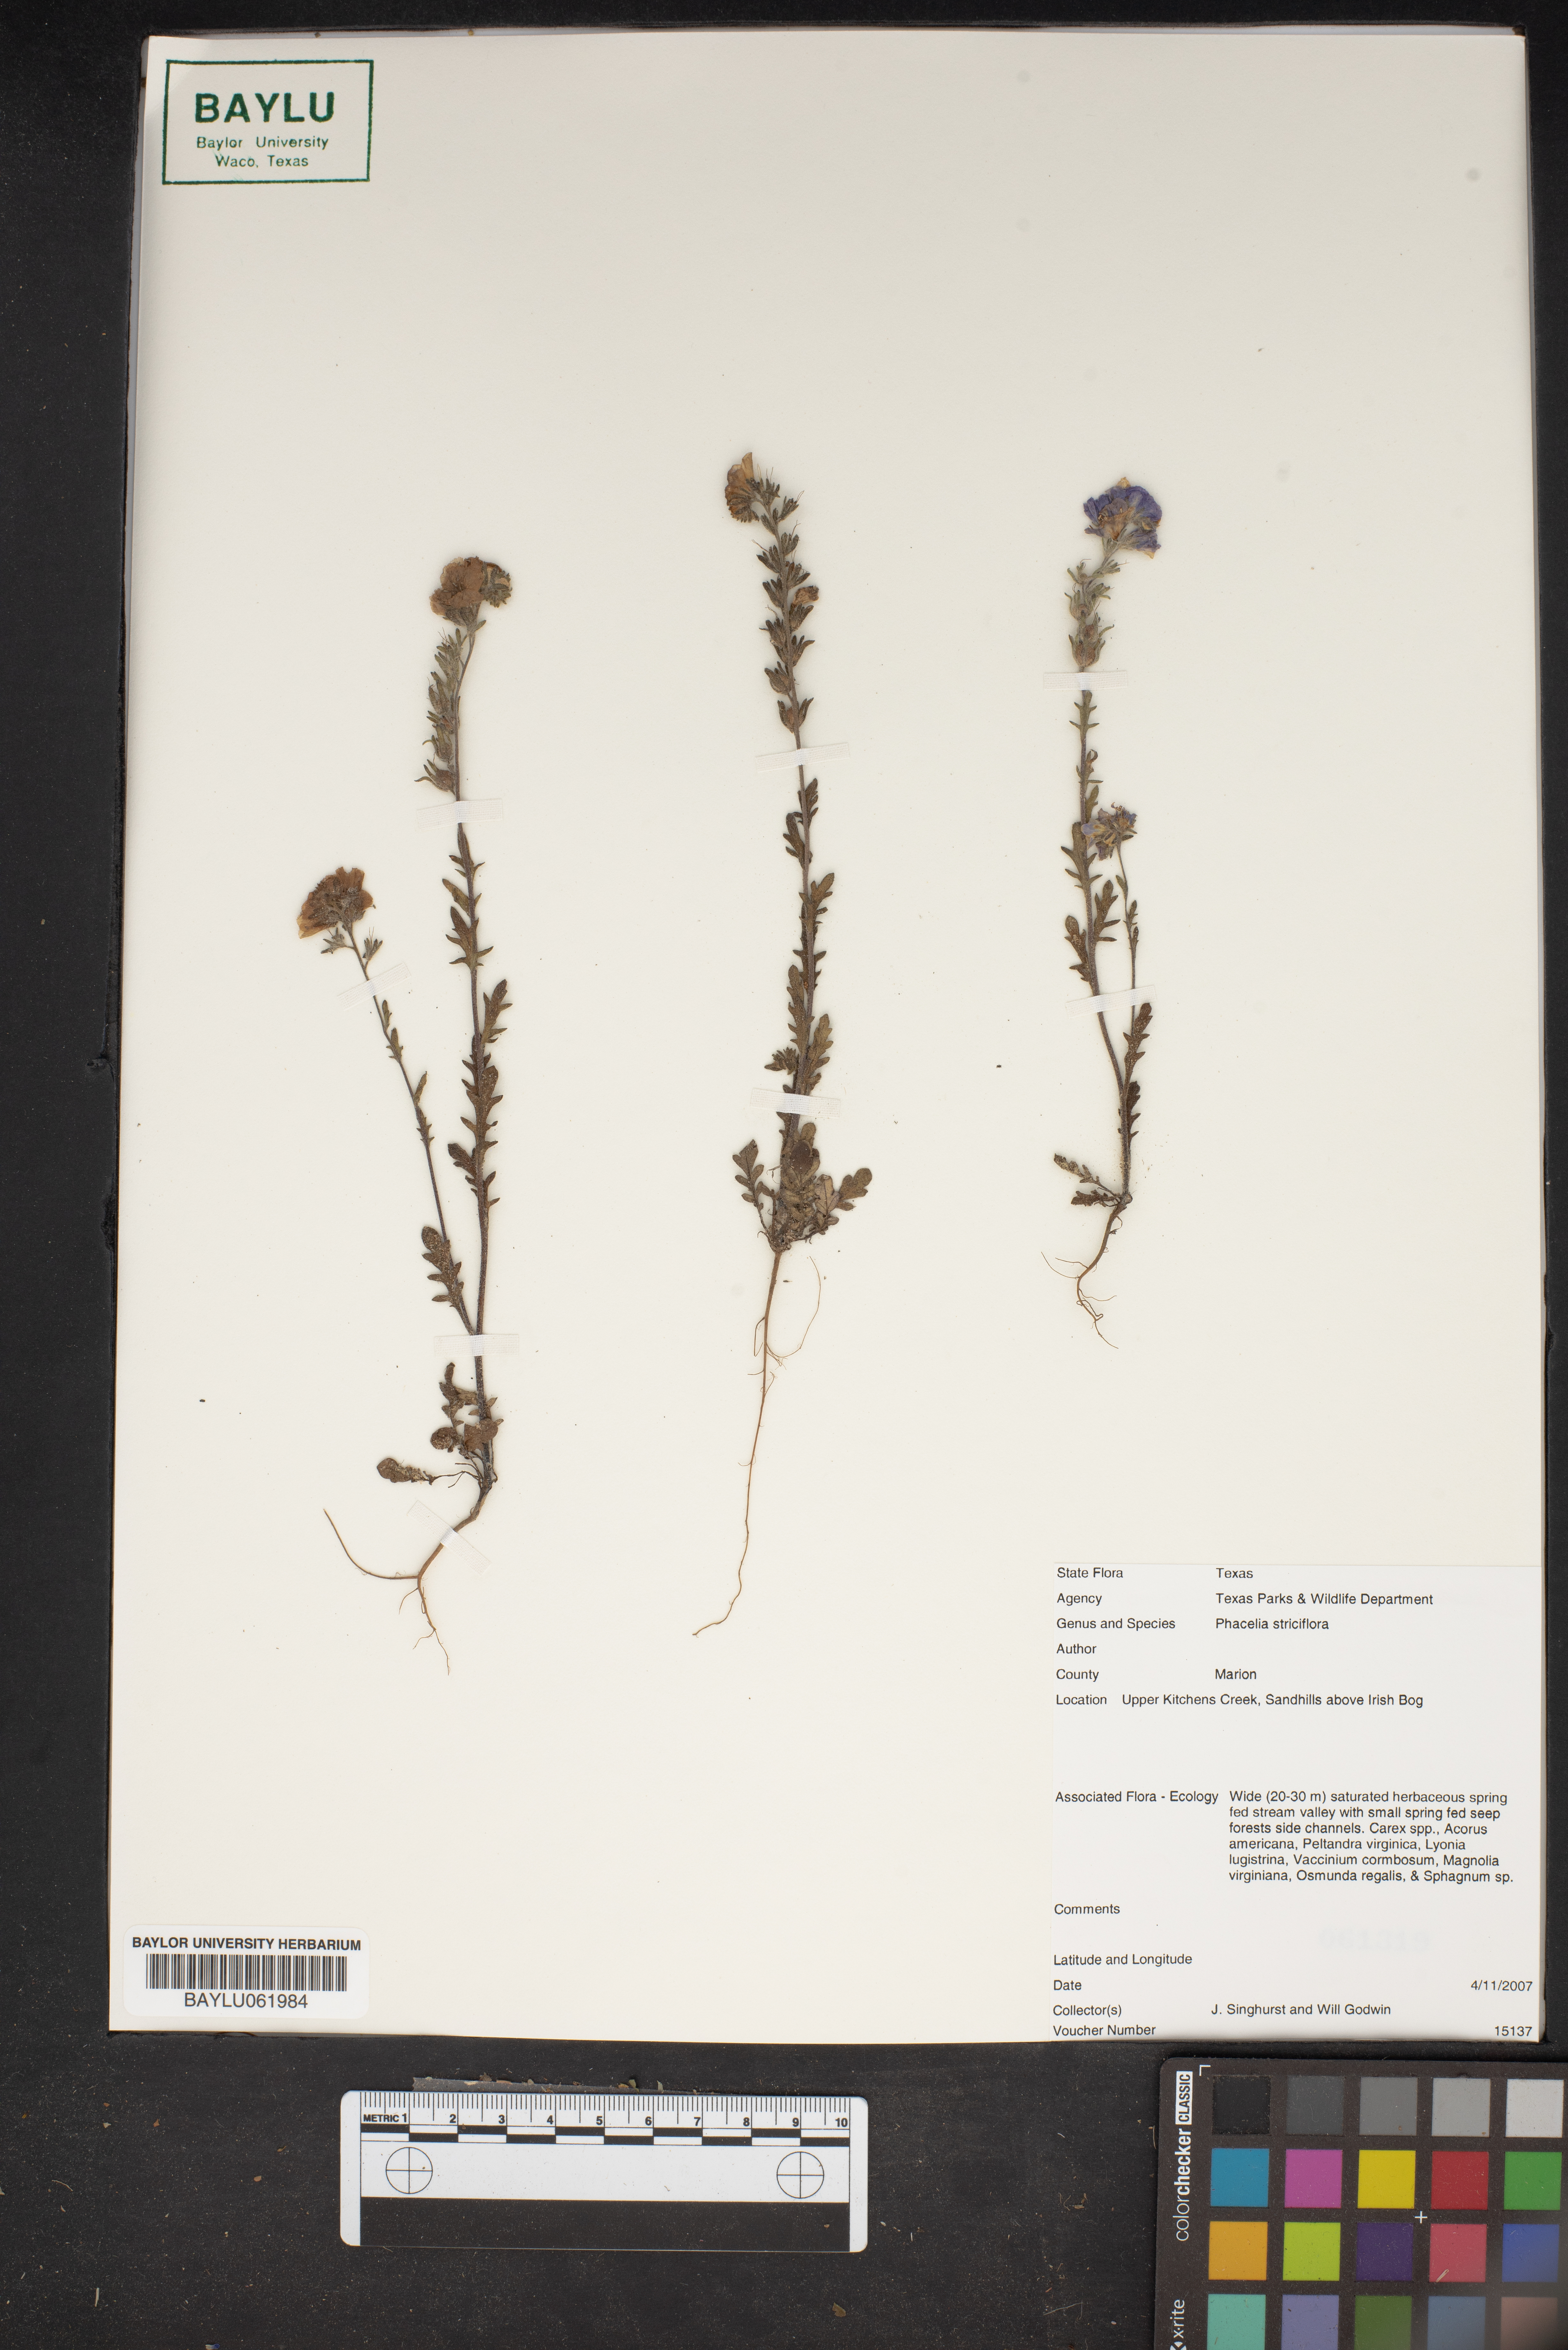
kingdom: Plantae
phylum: Tracheophyta
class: Magnoliopsida
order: Boraginales
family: Hydrophyllaceae
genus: Phacelia
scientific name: Phacelia strictiflora
